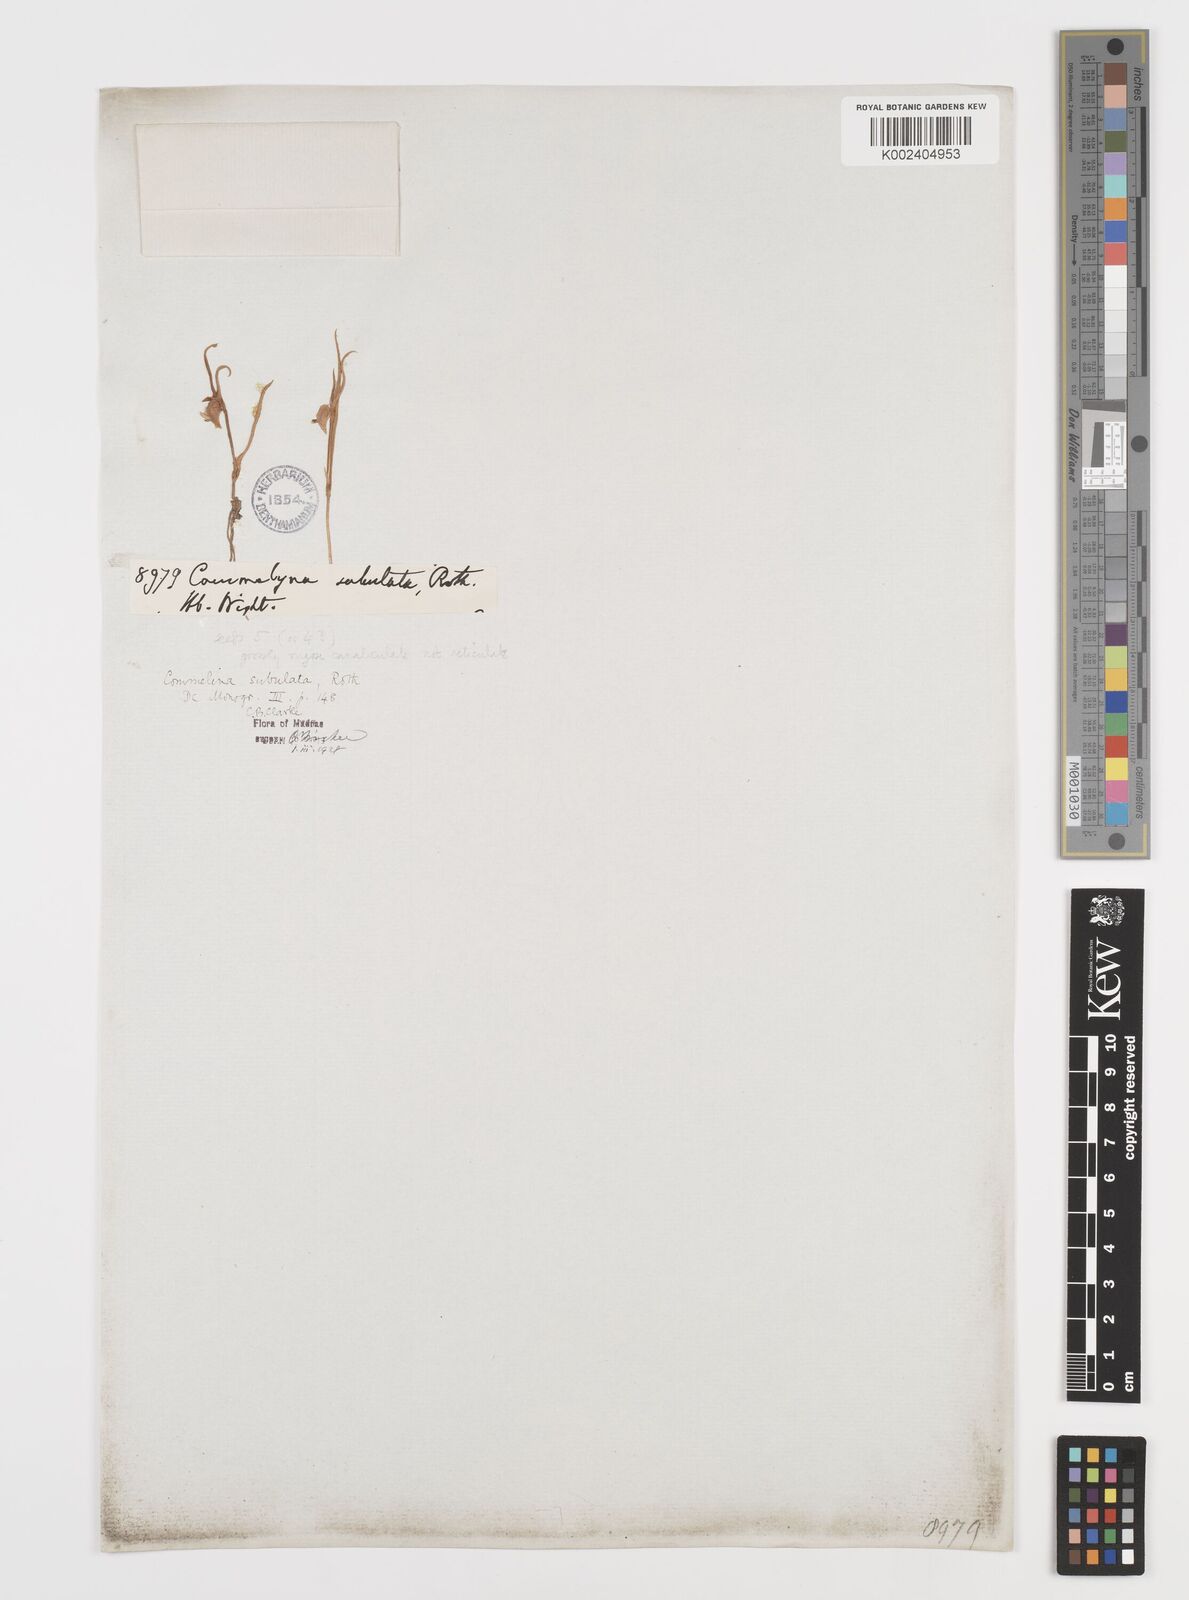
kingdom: Plantae
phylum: Tracheophyta
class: Liliopsida
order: Commelinales
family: Commelinaceae
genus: Commelina
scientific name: Commelina subulata
